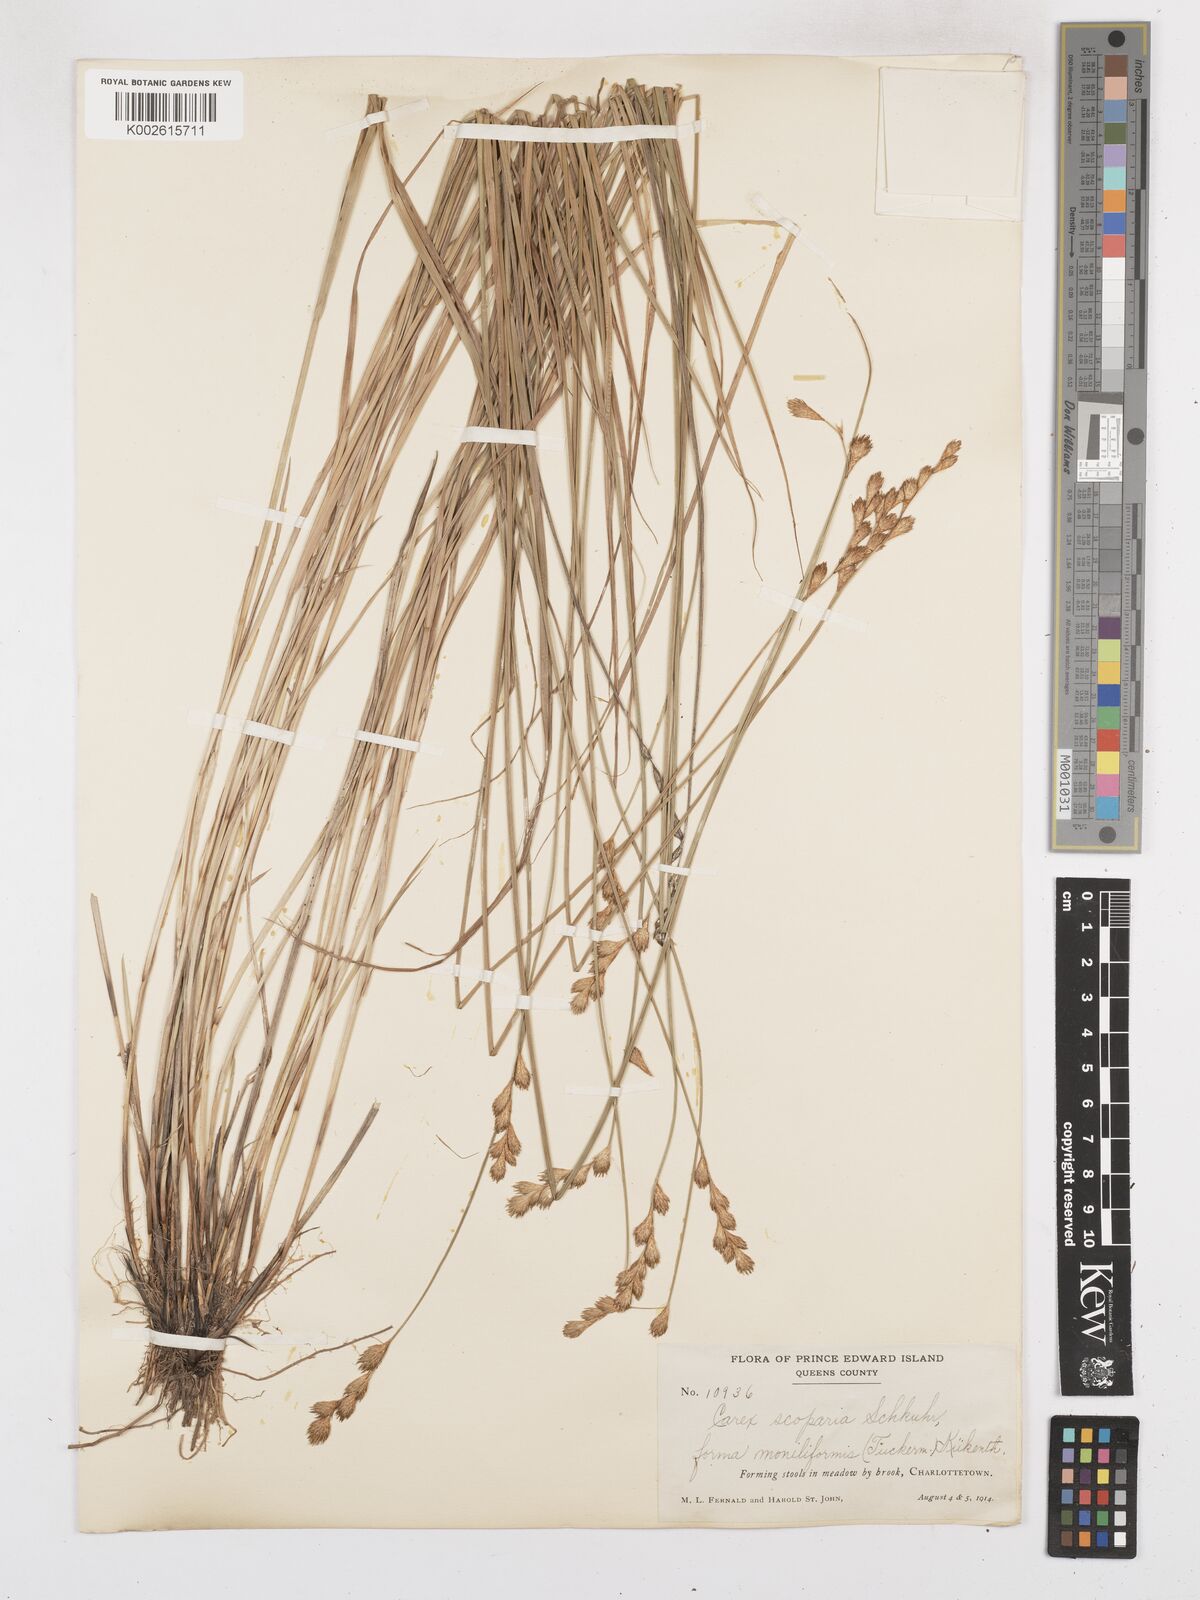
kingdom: Plantae
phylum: Tracheophyta
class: Liliopsida
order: Poales
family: Cyperaceae
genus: Carex
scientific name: Carex leporina
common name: Oval sedge
